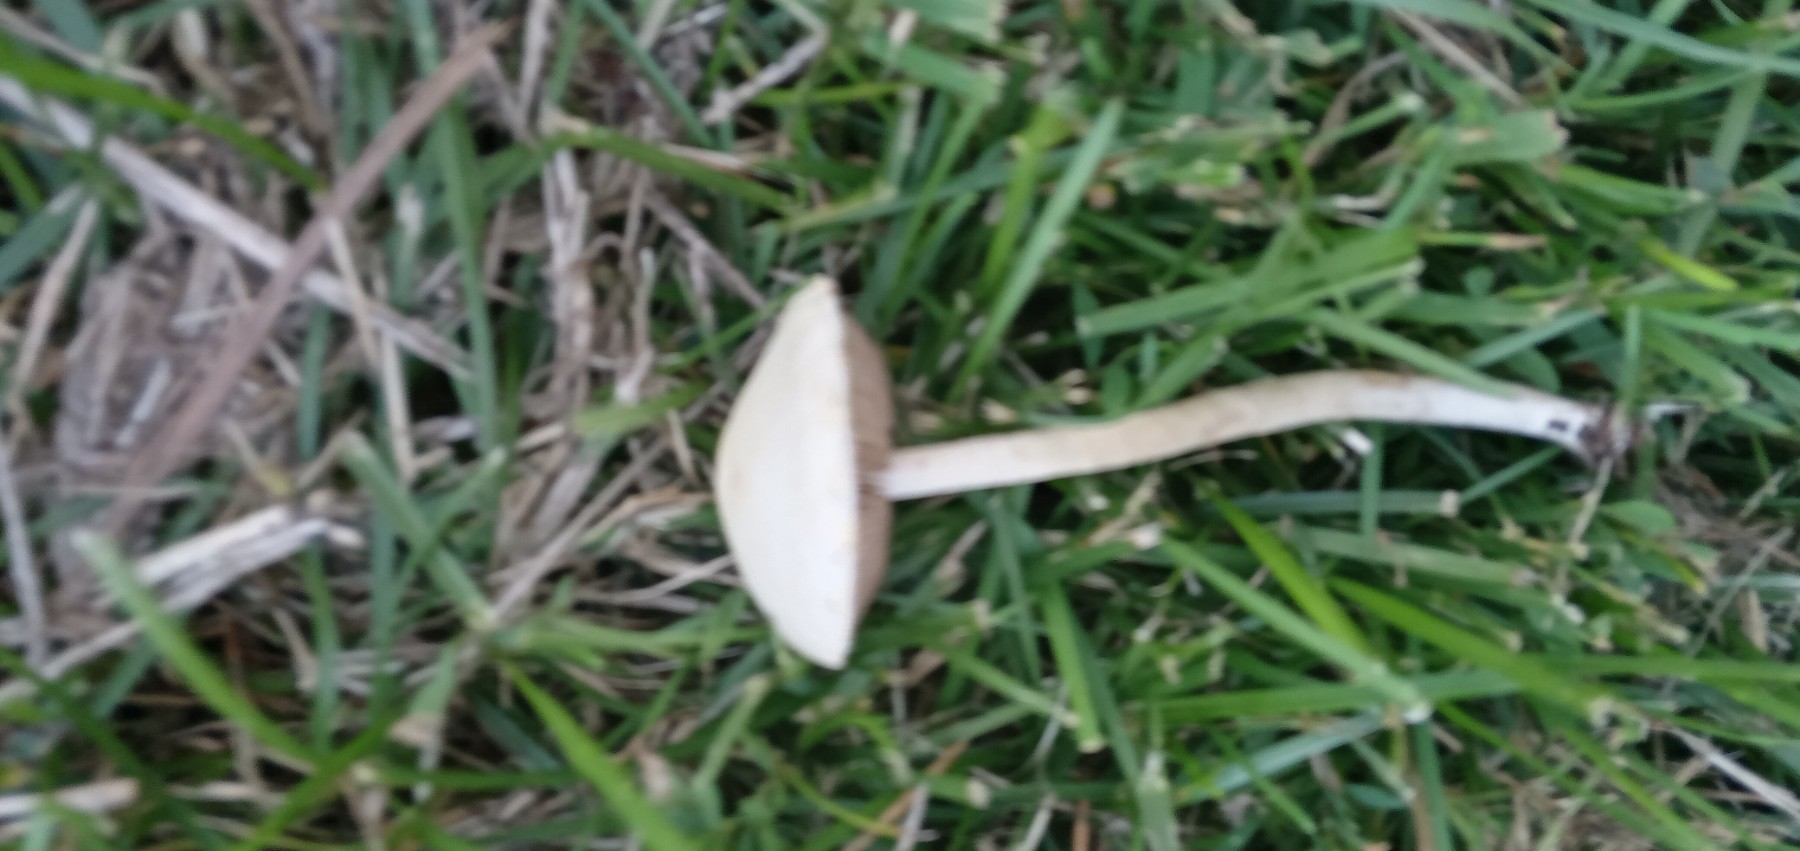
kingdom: Fungi
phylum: Basidiomycota
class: Agaricomycetes
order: Agaricales
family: Strophariaceae
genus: Agrocybe
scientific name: Agrocybe dura
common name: fastkødet agerhat
